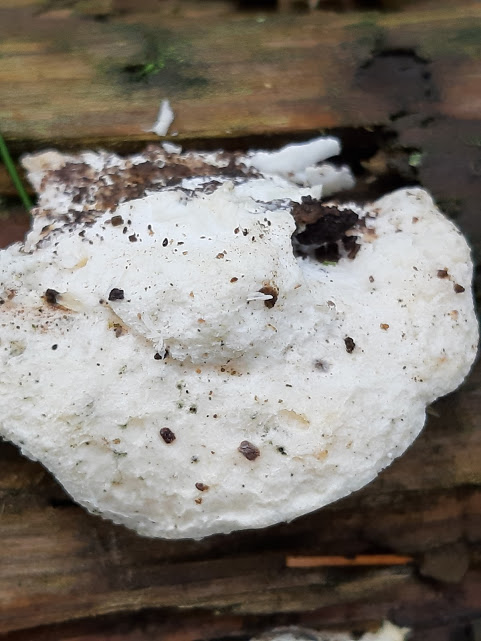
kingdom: Fungi
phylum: Basidiomycota
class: Agaricomycetes
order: Polyporales
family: Dacryobolaceae
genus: Oligoporus
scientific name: Oligoporus
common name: kødporesvamp
